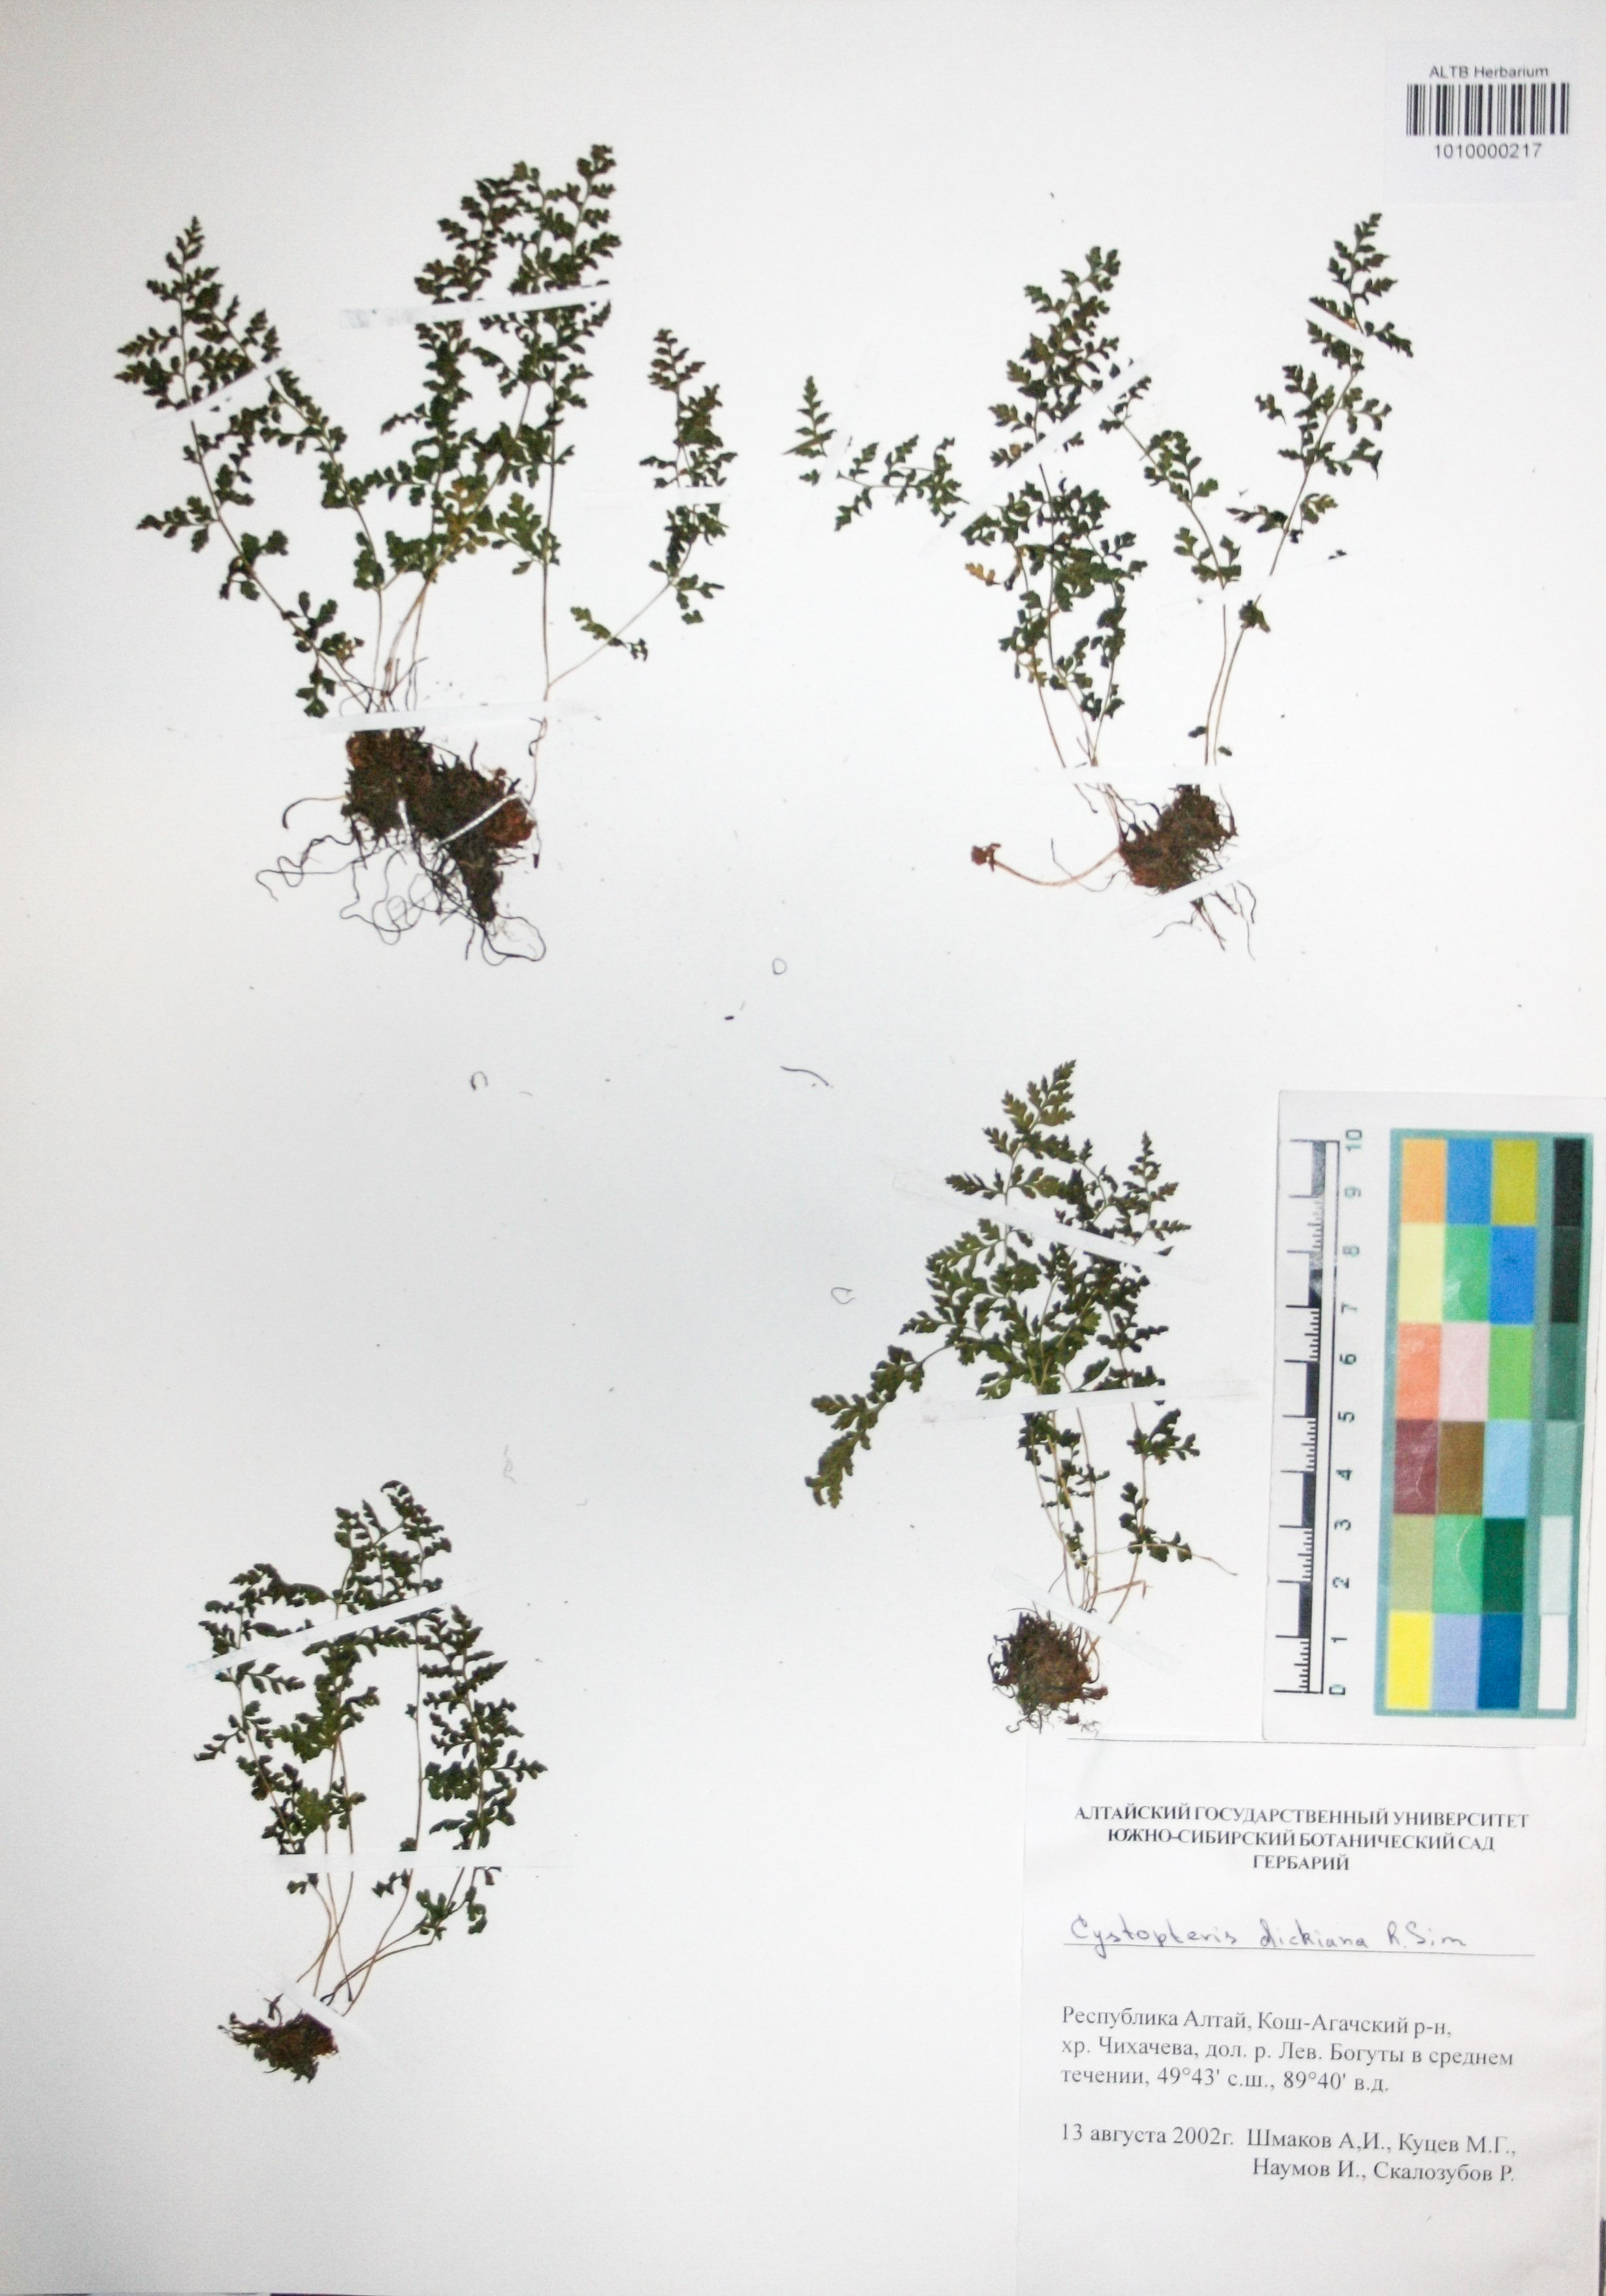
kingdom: Plantae
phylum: Tracheophyta
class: Polypodiopsida
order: Polypodiales
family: Cystopteridaceae
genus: Cystopteris
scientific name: Cystopteris dickieana
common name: Dickie's bladder-fern
